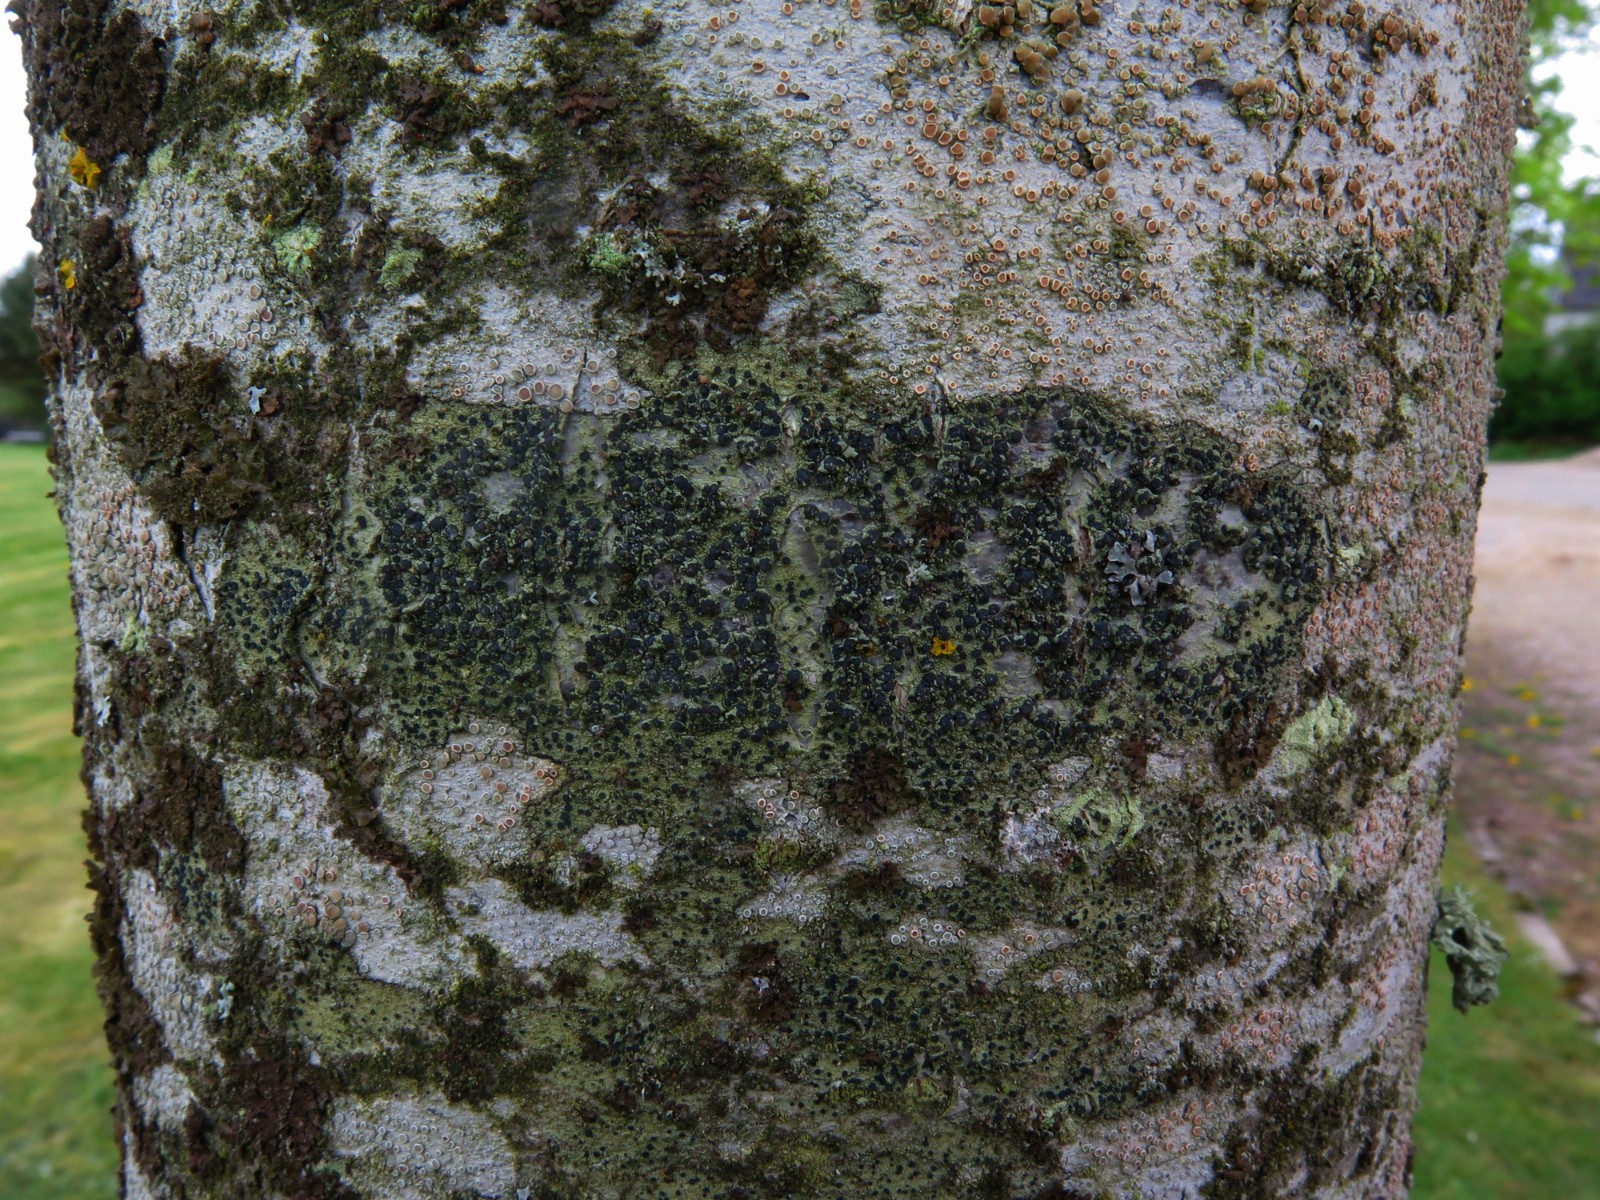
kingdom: Fungi
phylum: Ascomycota
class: Lecanoromycetes
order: Lecanorales
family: Lecanoraceae
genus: Lecidella
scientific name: Lecidella elaeochroma
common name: grågrøn skivelav
